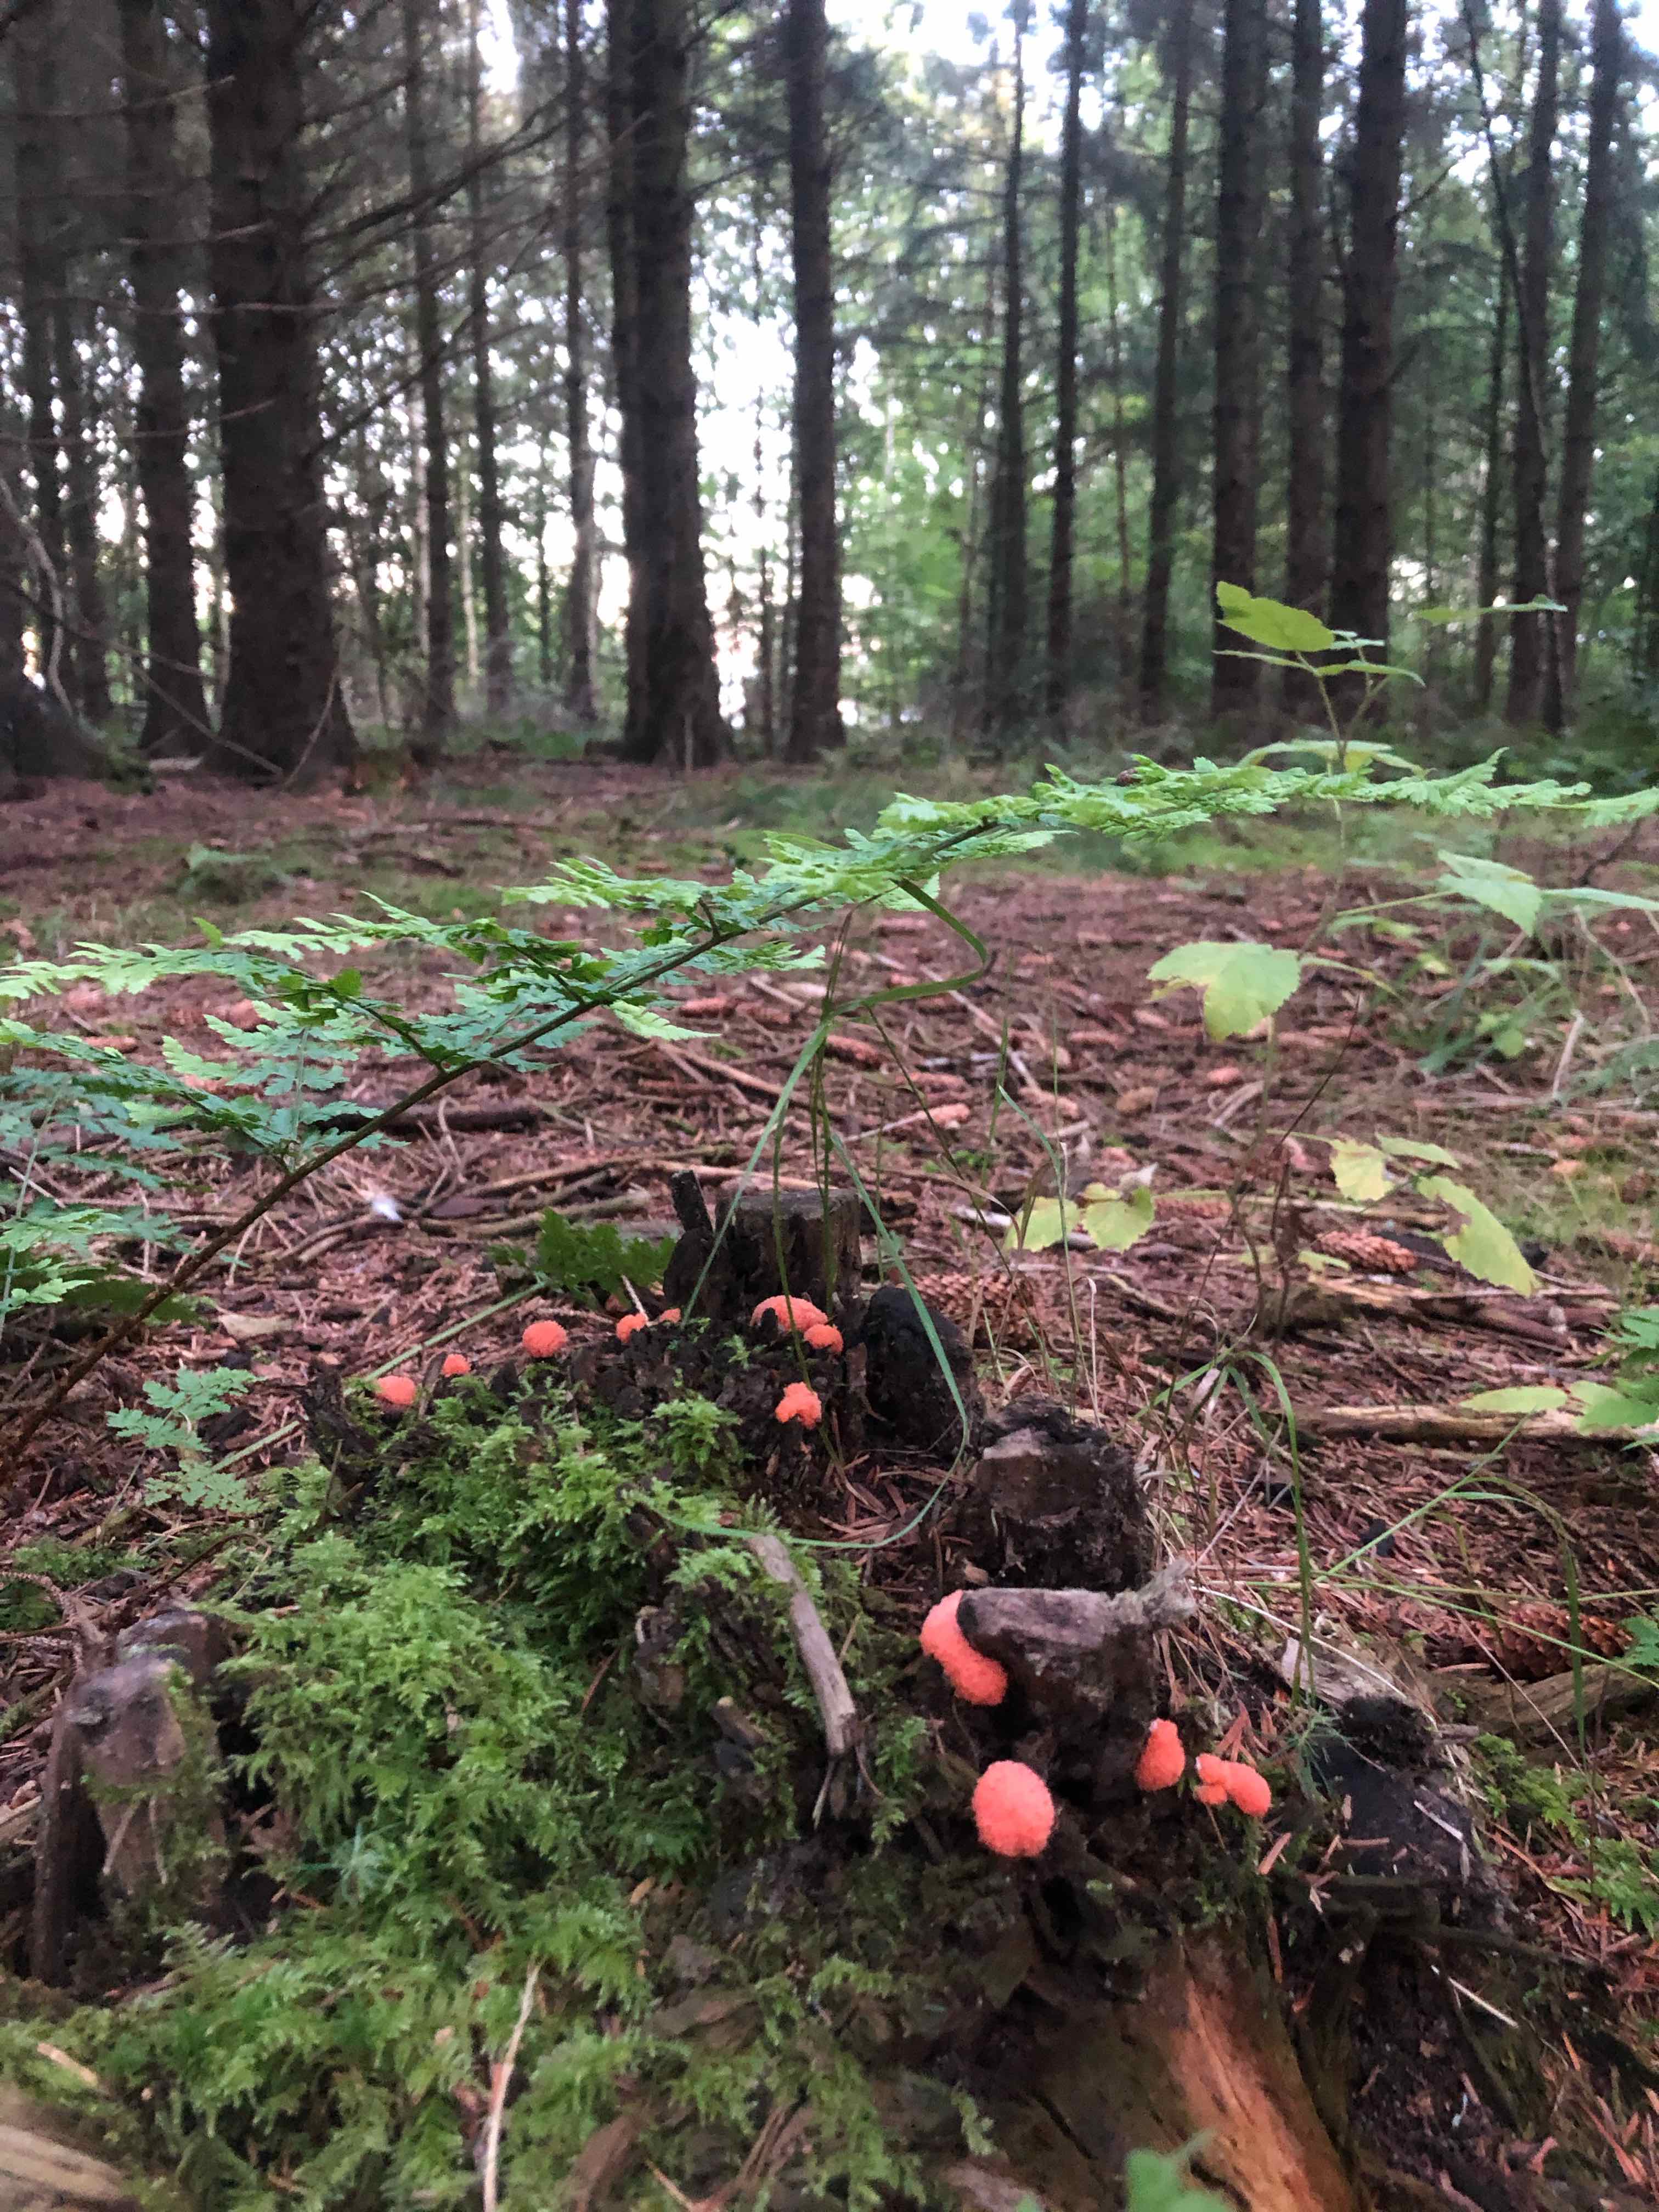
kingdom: Protozoa
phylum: Mycetozoa
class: Myxomycetes
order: Cribrariales
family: Tubiferaceae
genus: Tubifera
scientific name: Tubifera ferruginosa
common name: kanel-støvrør
